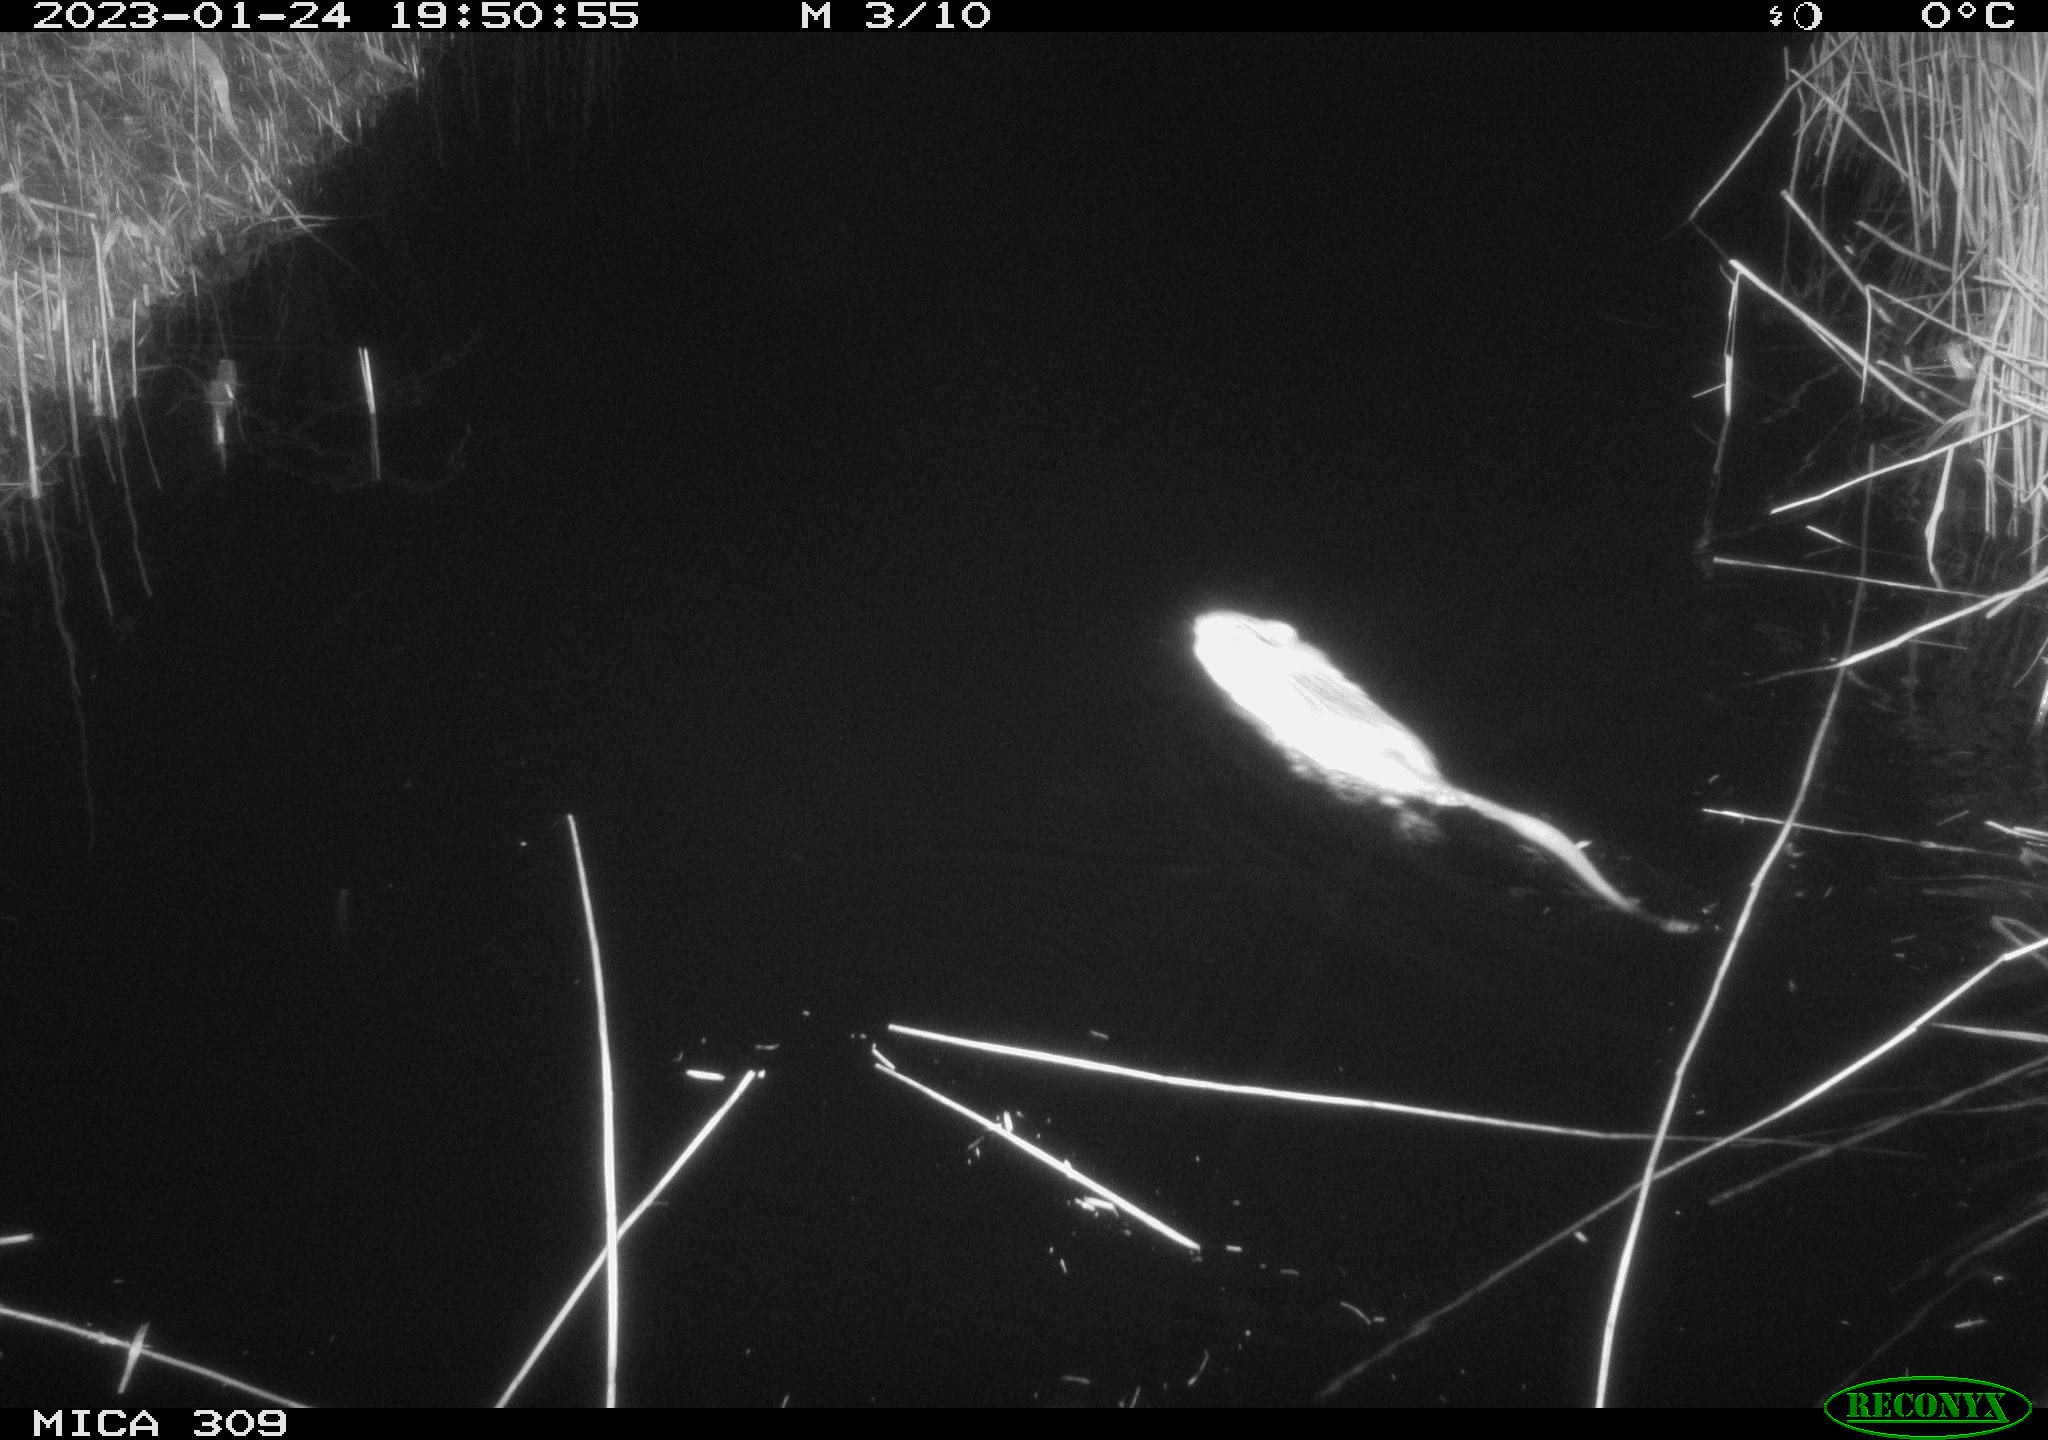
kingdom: Animalia
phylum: Chordata
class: Mammalia
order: Rodentia
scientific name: Rodentia
